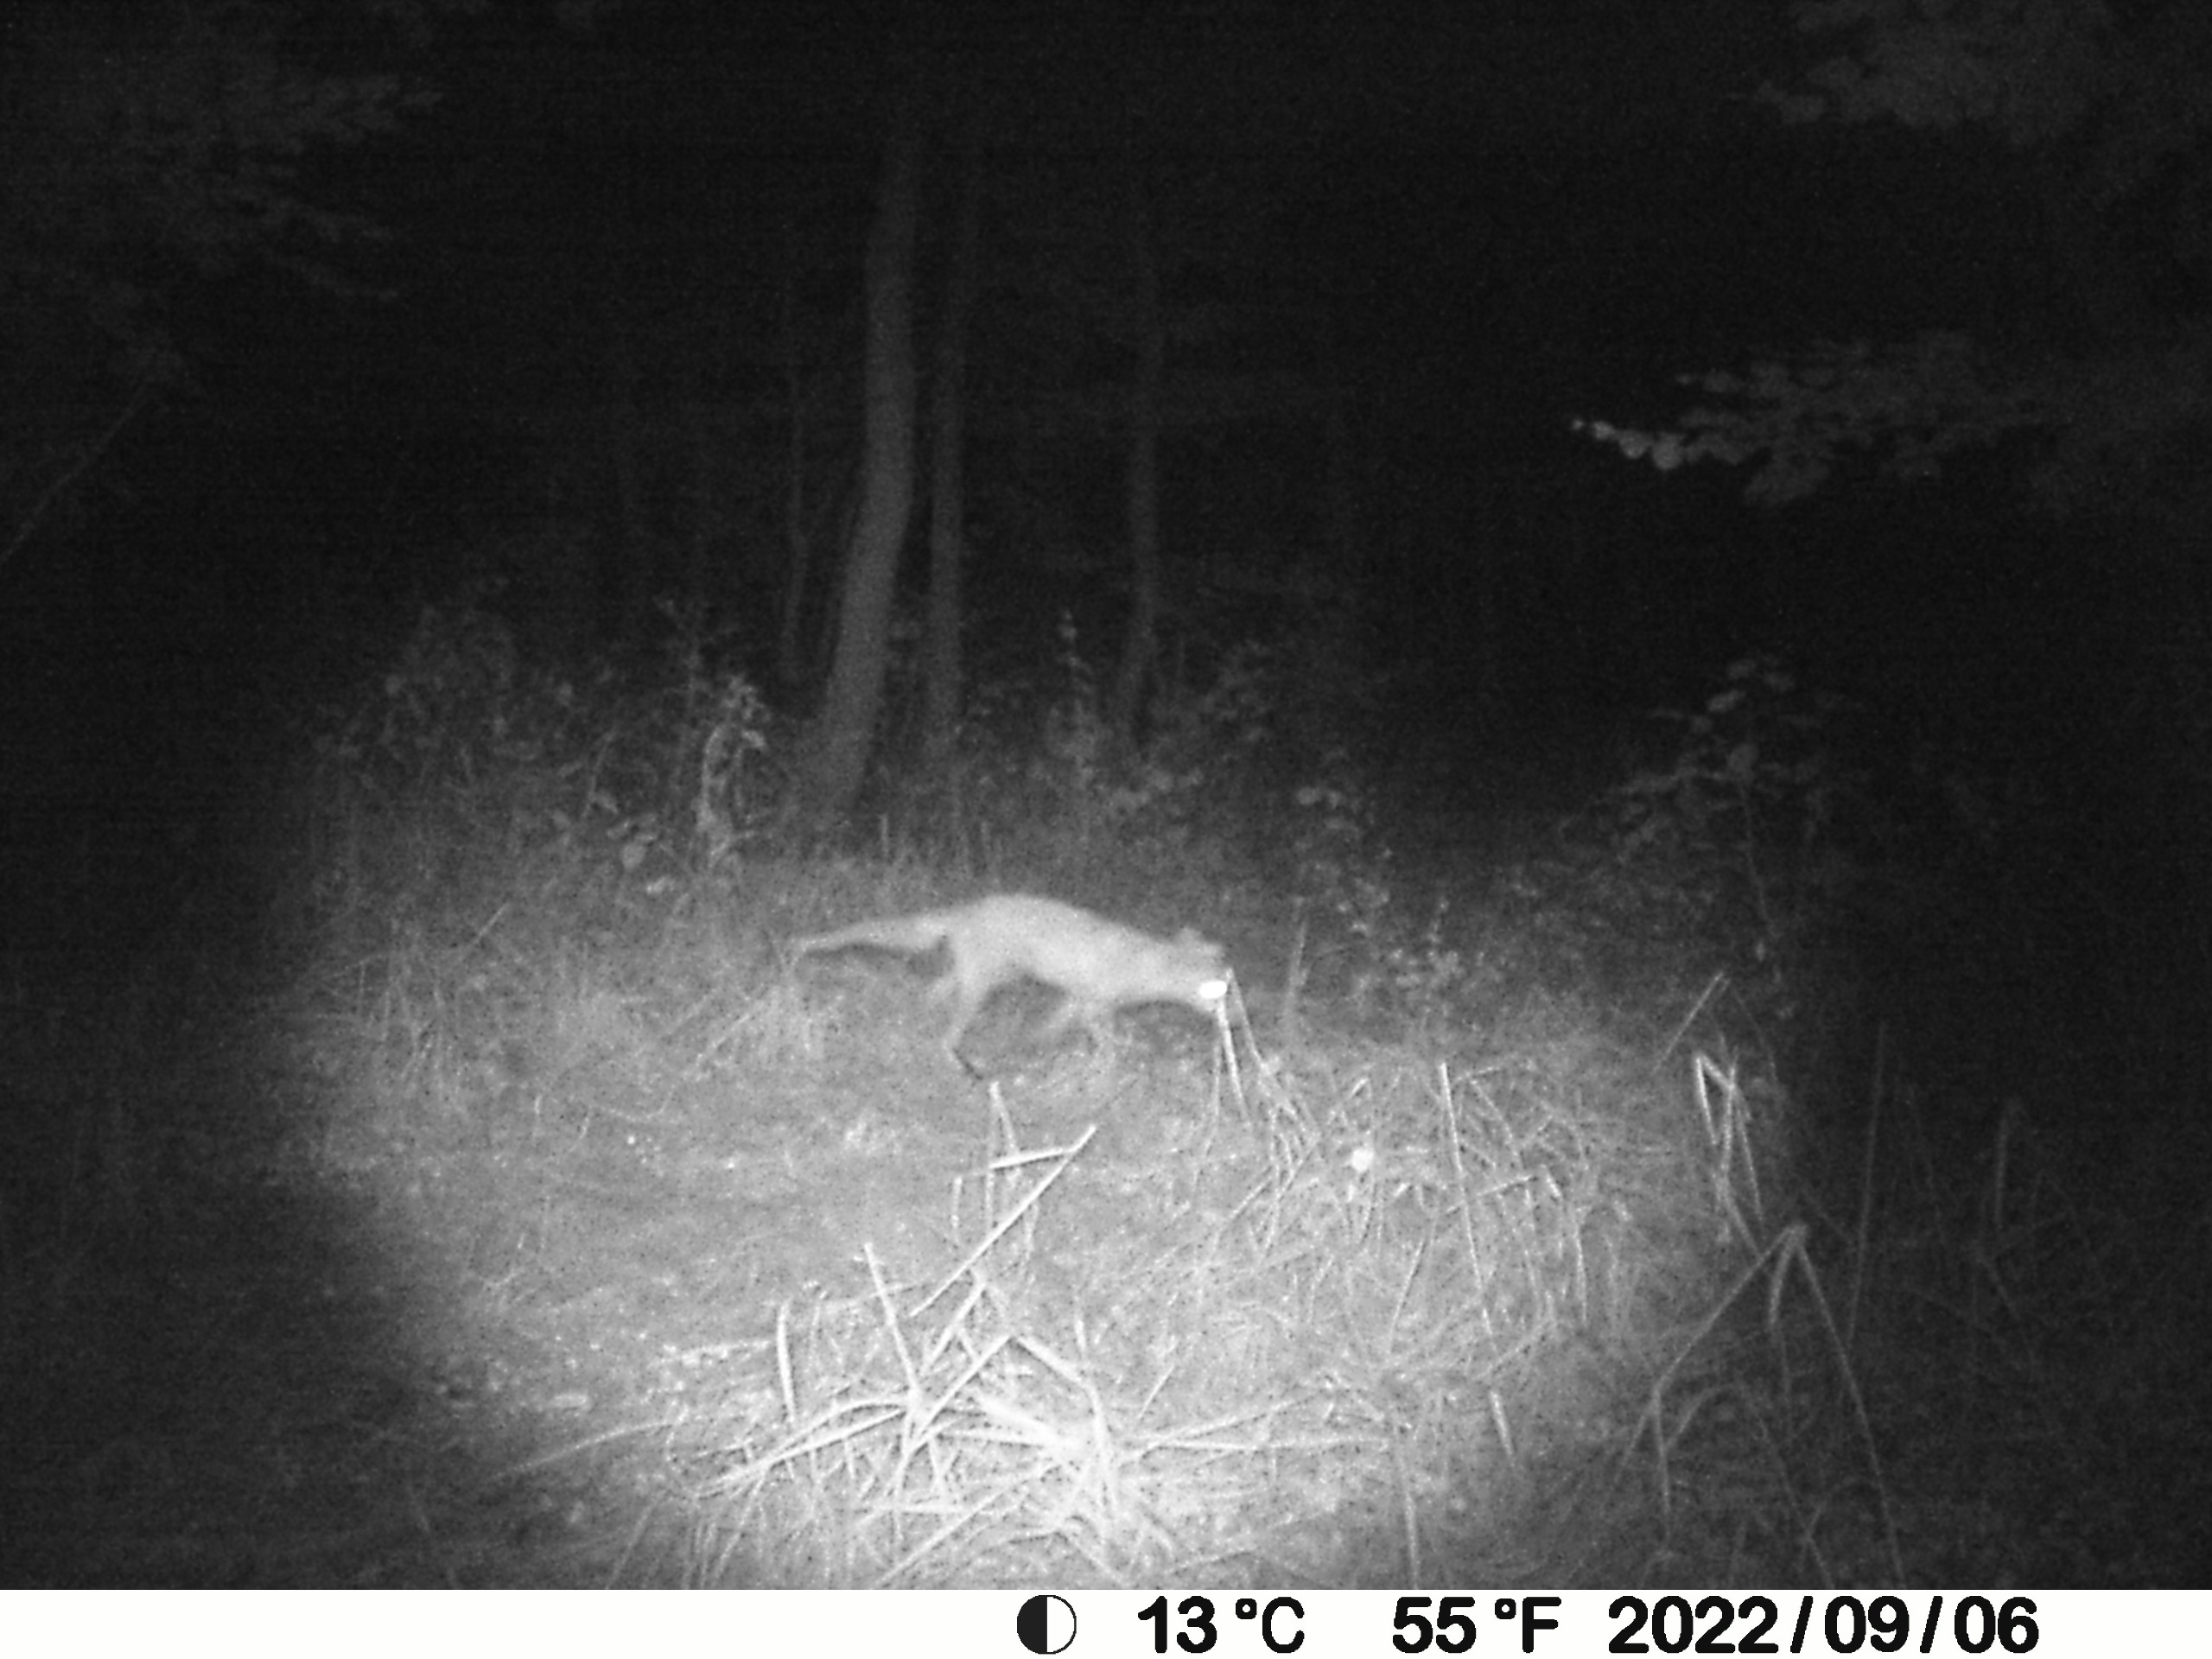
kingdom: Animalia
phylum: Chordata
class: Mammalia
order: Carnivora
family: Canidae
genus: Vulpes
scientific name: Vulpes vulpes
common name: Ræv
